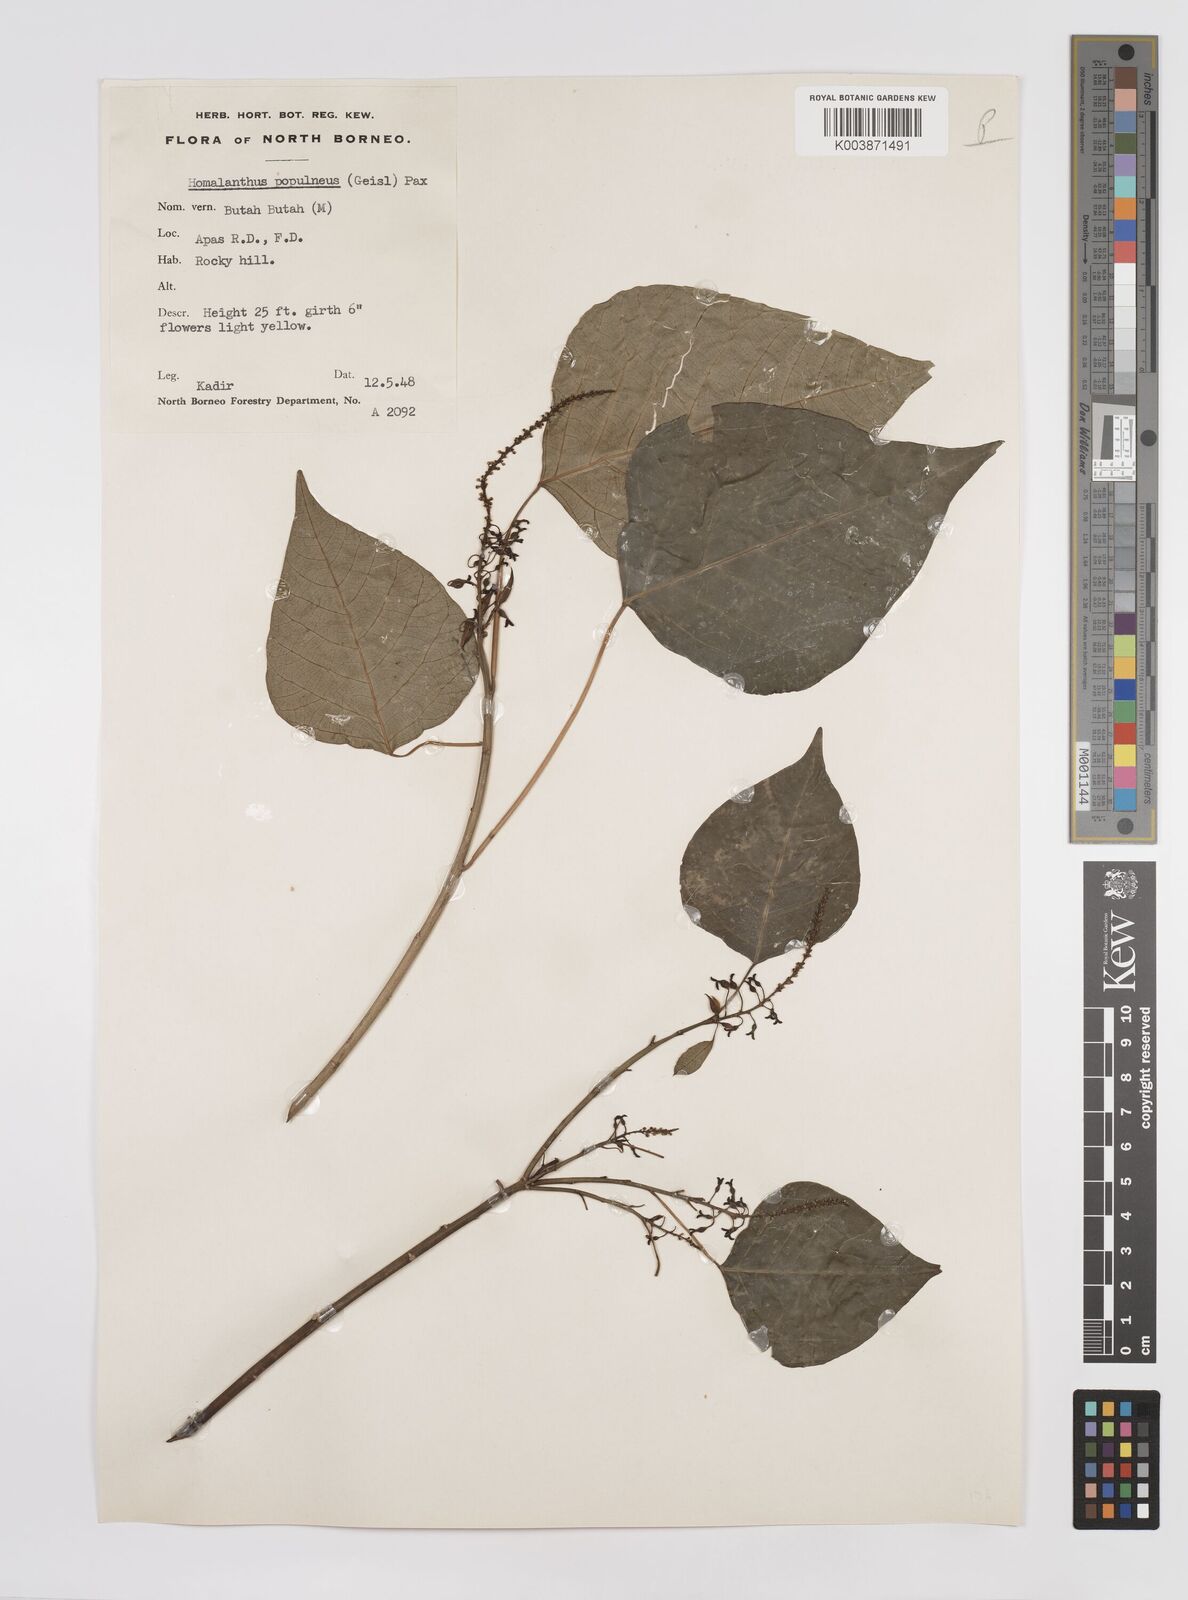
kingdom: Plantae
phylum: Tracheophyta
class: Magnoliopsida
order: Malpighiales
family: Euphorbiaceae
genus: Homalanthus
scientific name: Homalanthus populneus
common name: Spurge
